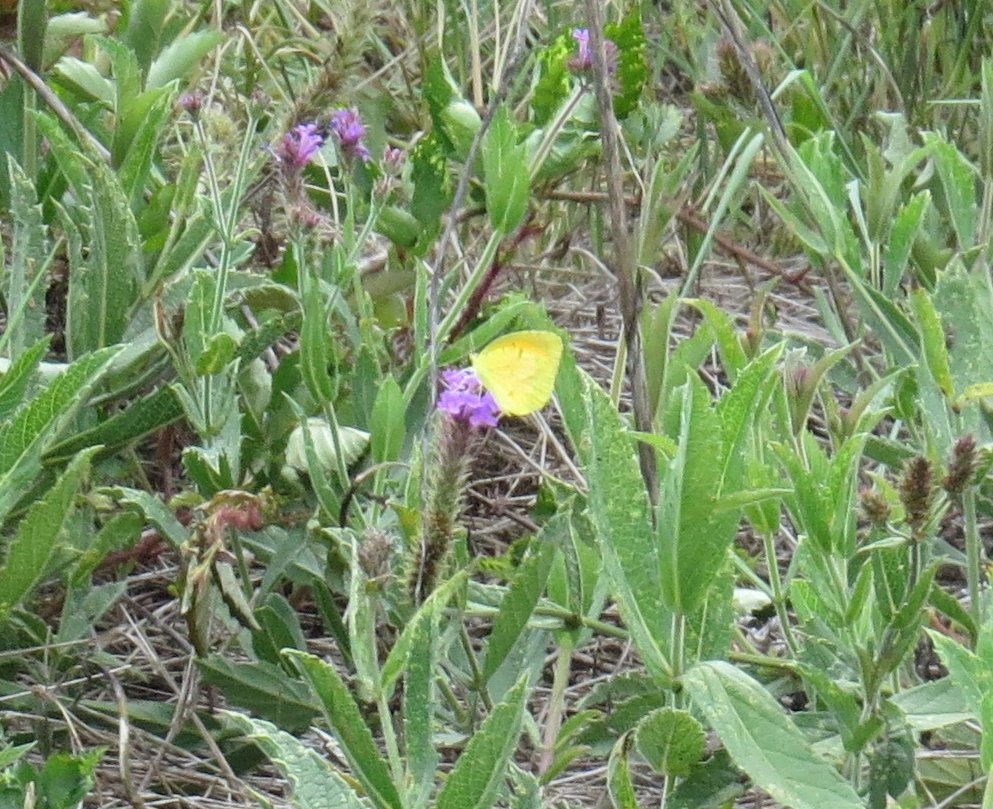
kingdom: Animalia
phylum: Arthropoda
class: Insecta
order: Lepidoptera
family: Pieridae
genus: Abaeis
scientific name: Abaeis nicippe
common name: Sleepy Orange
